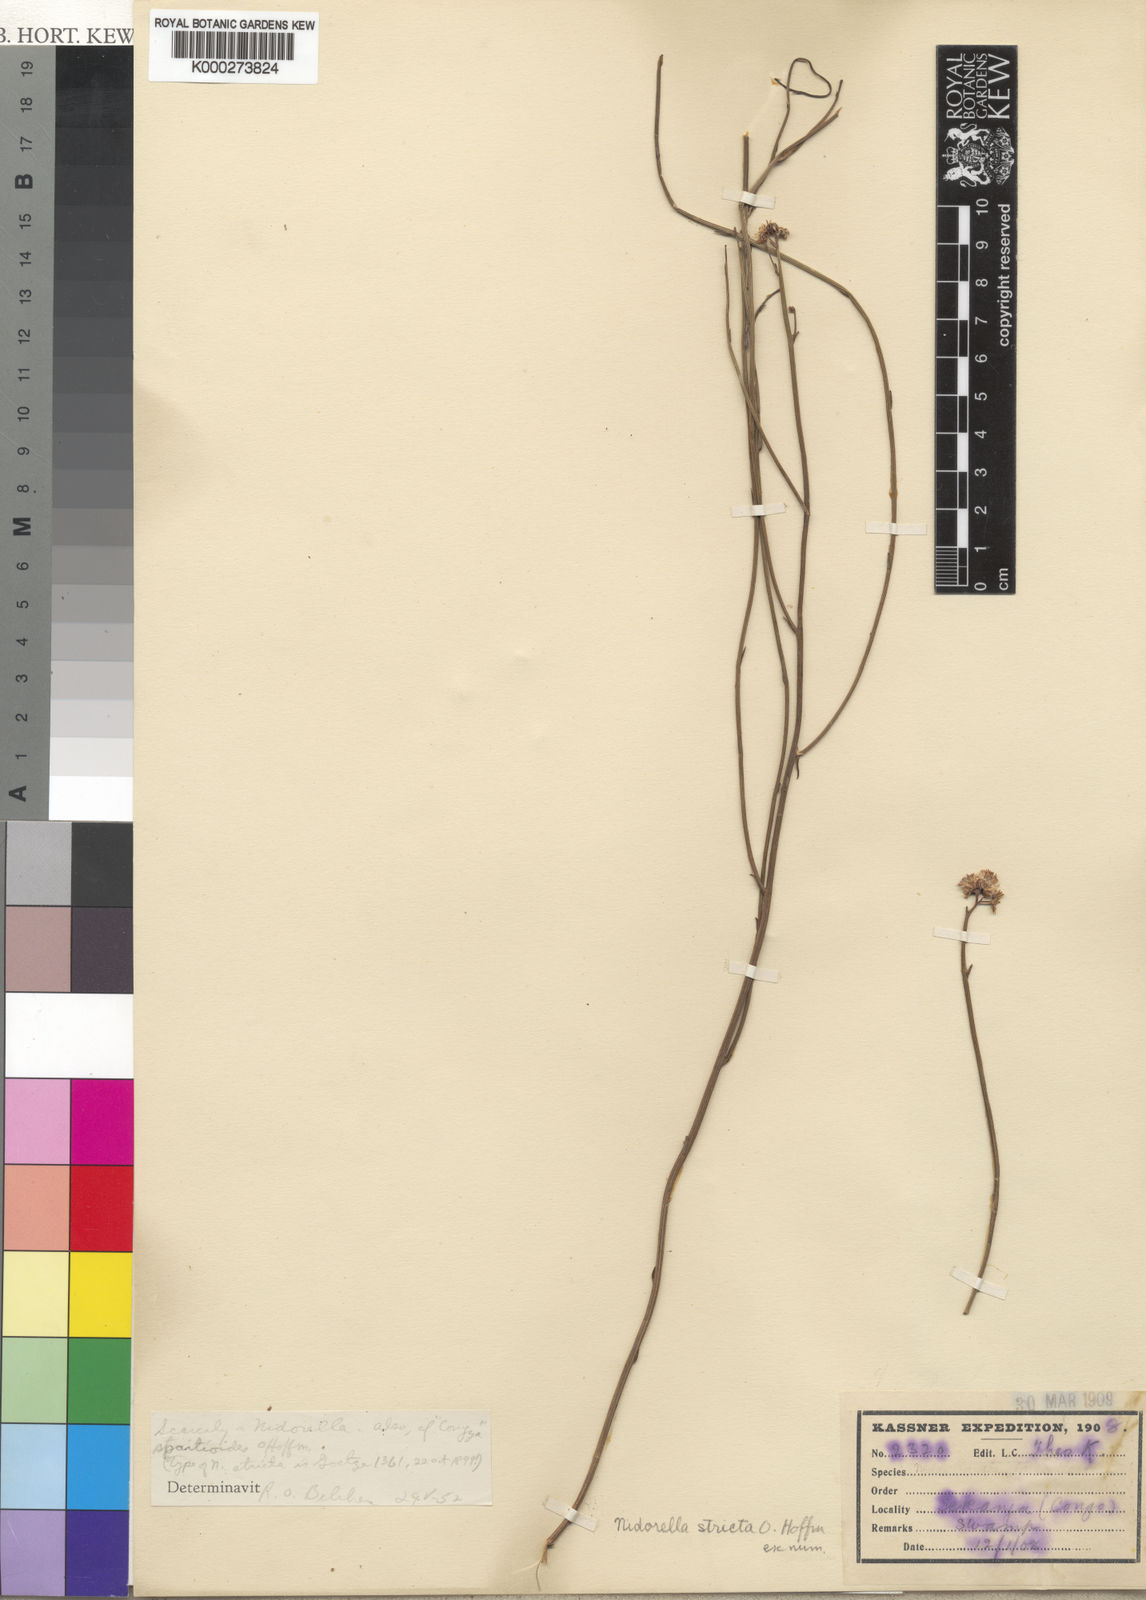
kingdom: Plantae
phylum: Tracheophyta
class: Magnoliopsida
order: Asterales
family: Asteraceae
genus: Nidorella
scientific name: Nidorella spartioides
